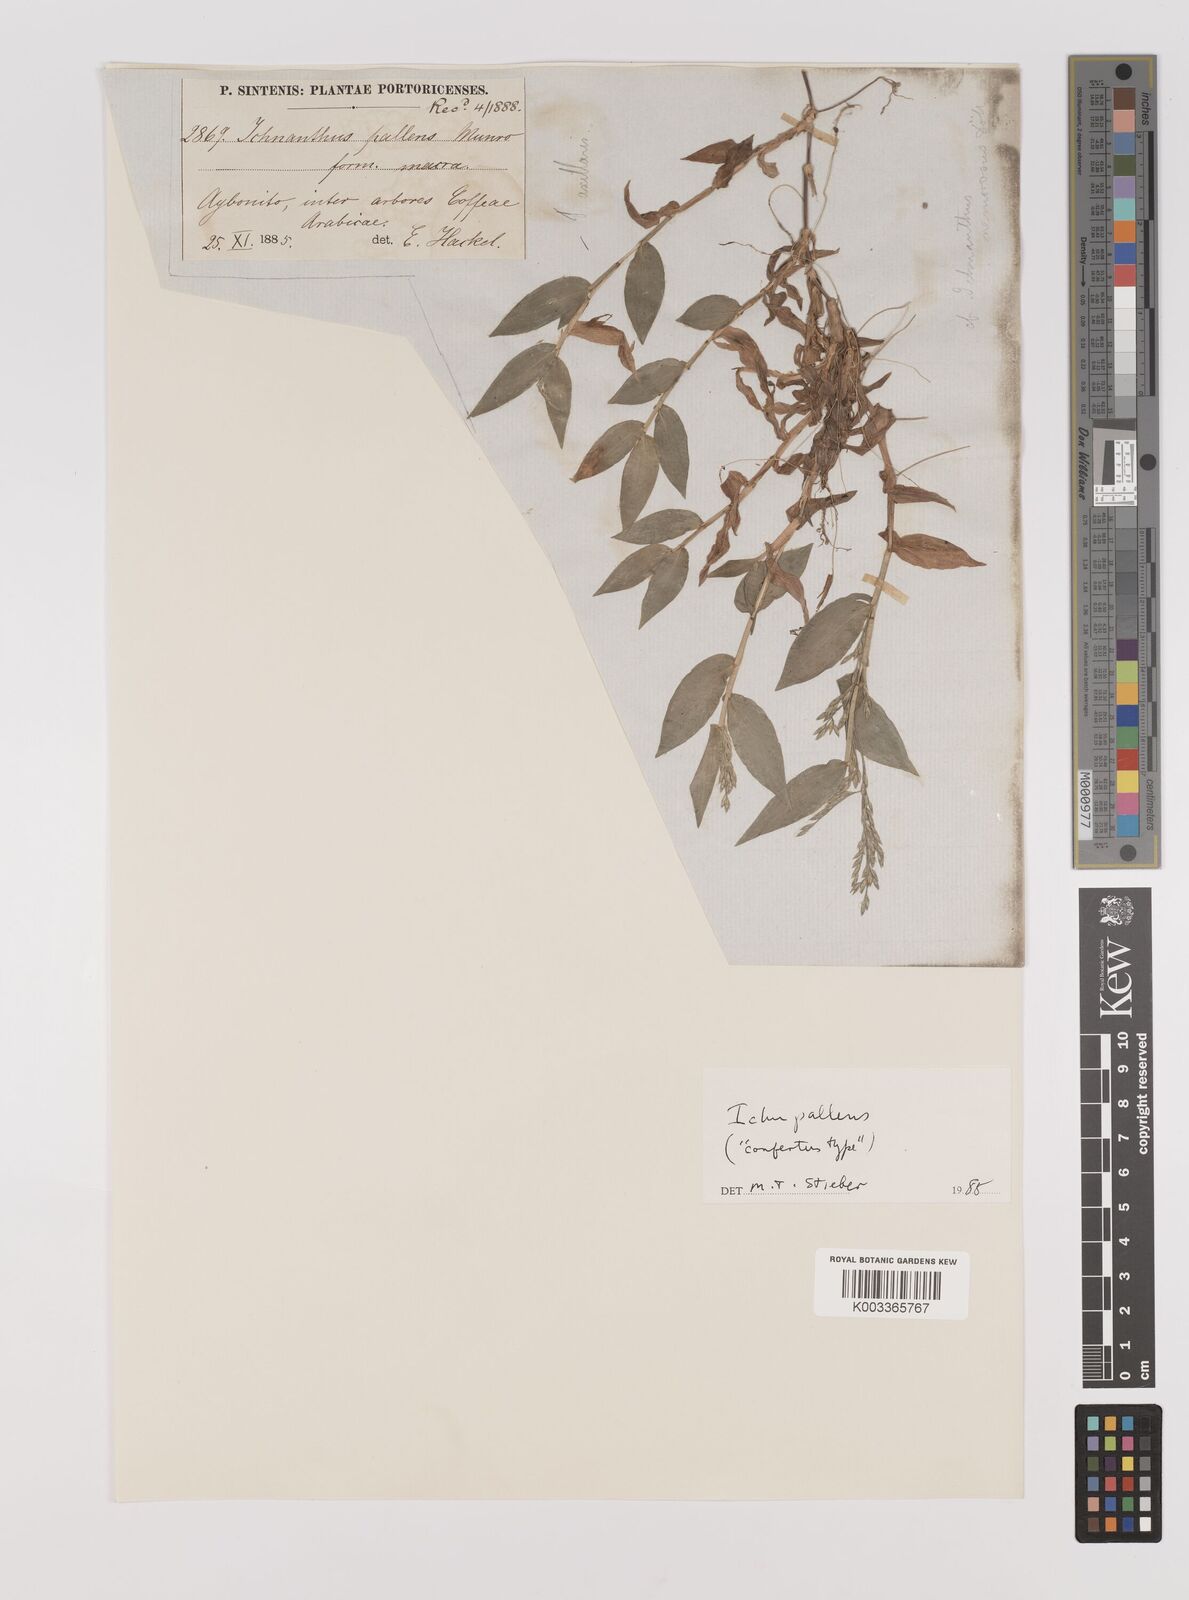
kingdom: Plantae
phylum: Tracheophyta
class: Liliopsida
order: Poales
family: Poaceae
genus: Ichnanthus
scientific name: Ichnanthus pallens
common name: Water grass
